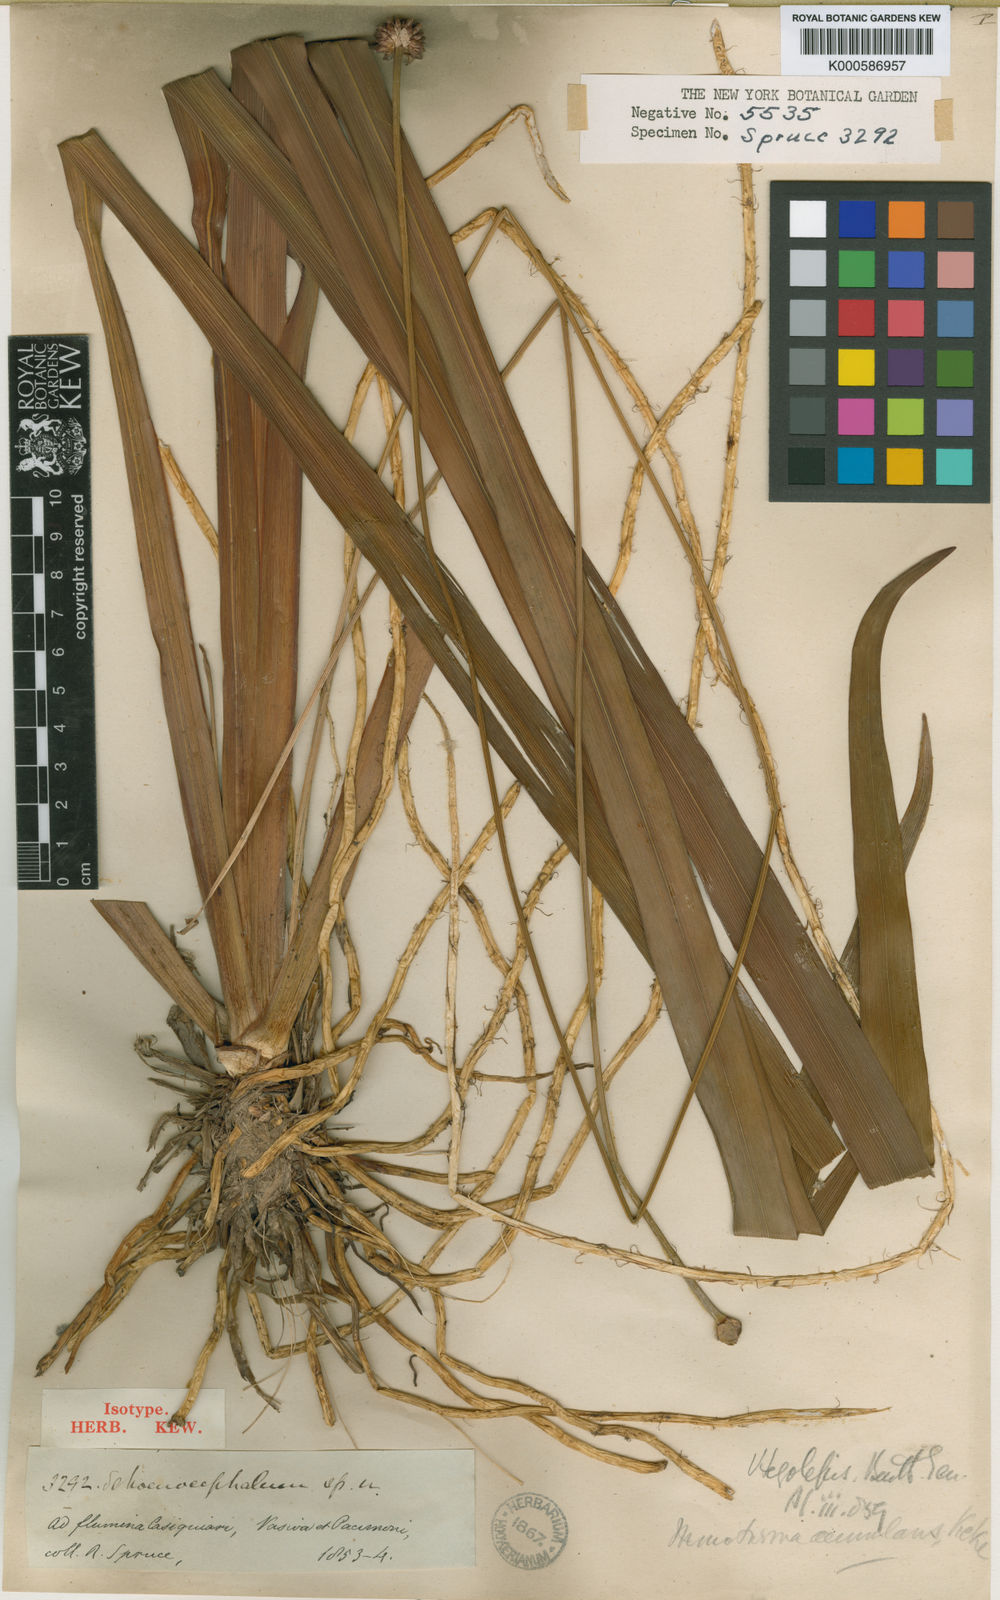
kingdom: Plantae
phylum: Tracheophyta
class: Liliopsida
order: Poales
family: Rapateaceae
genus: Monotrema
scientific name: Monotrema
